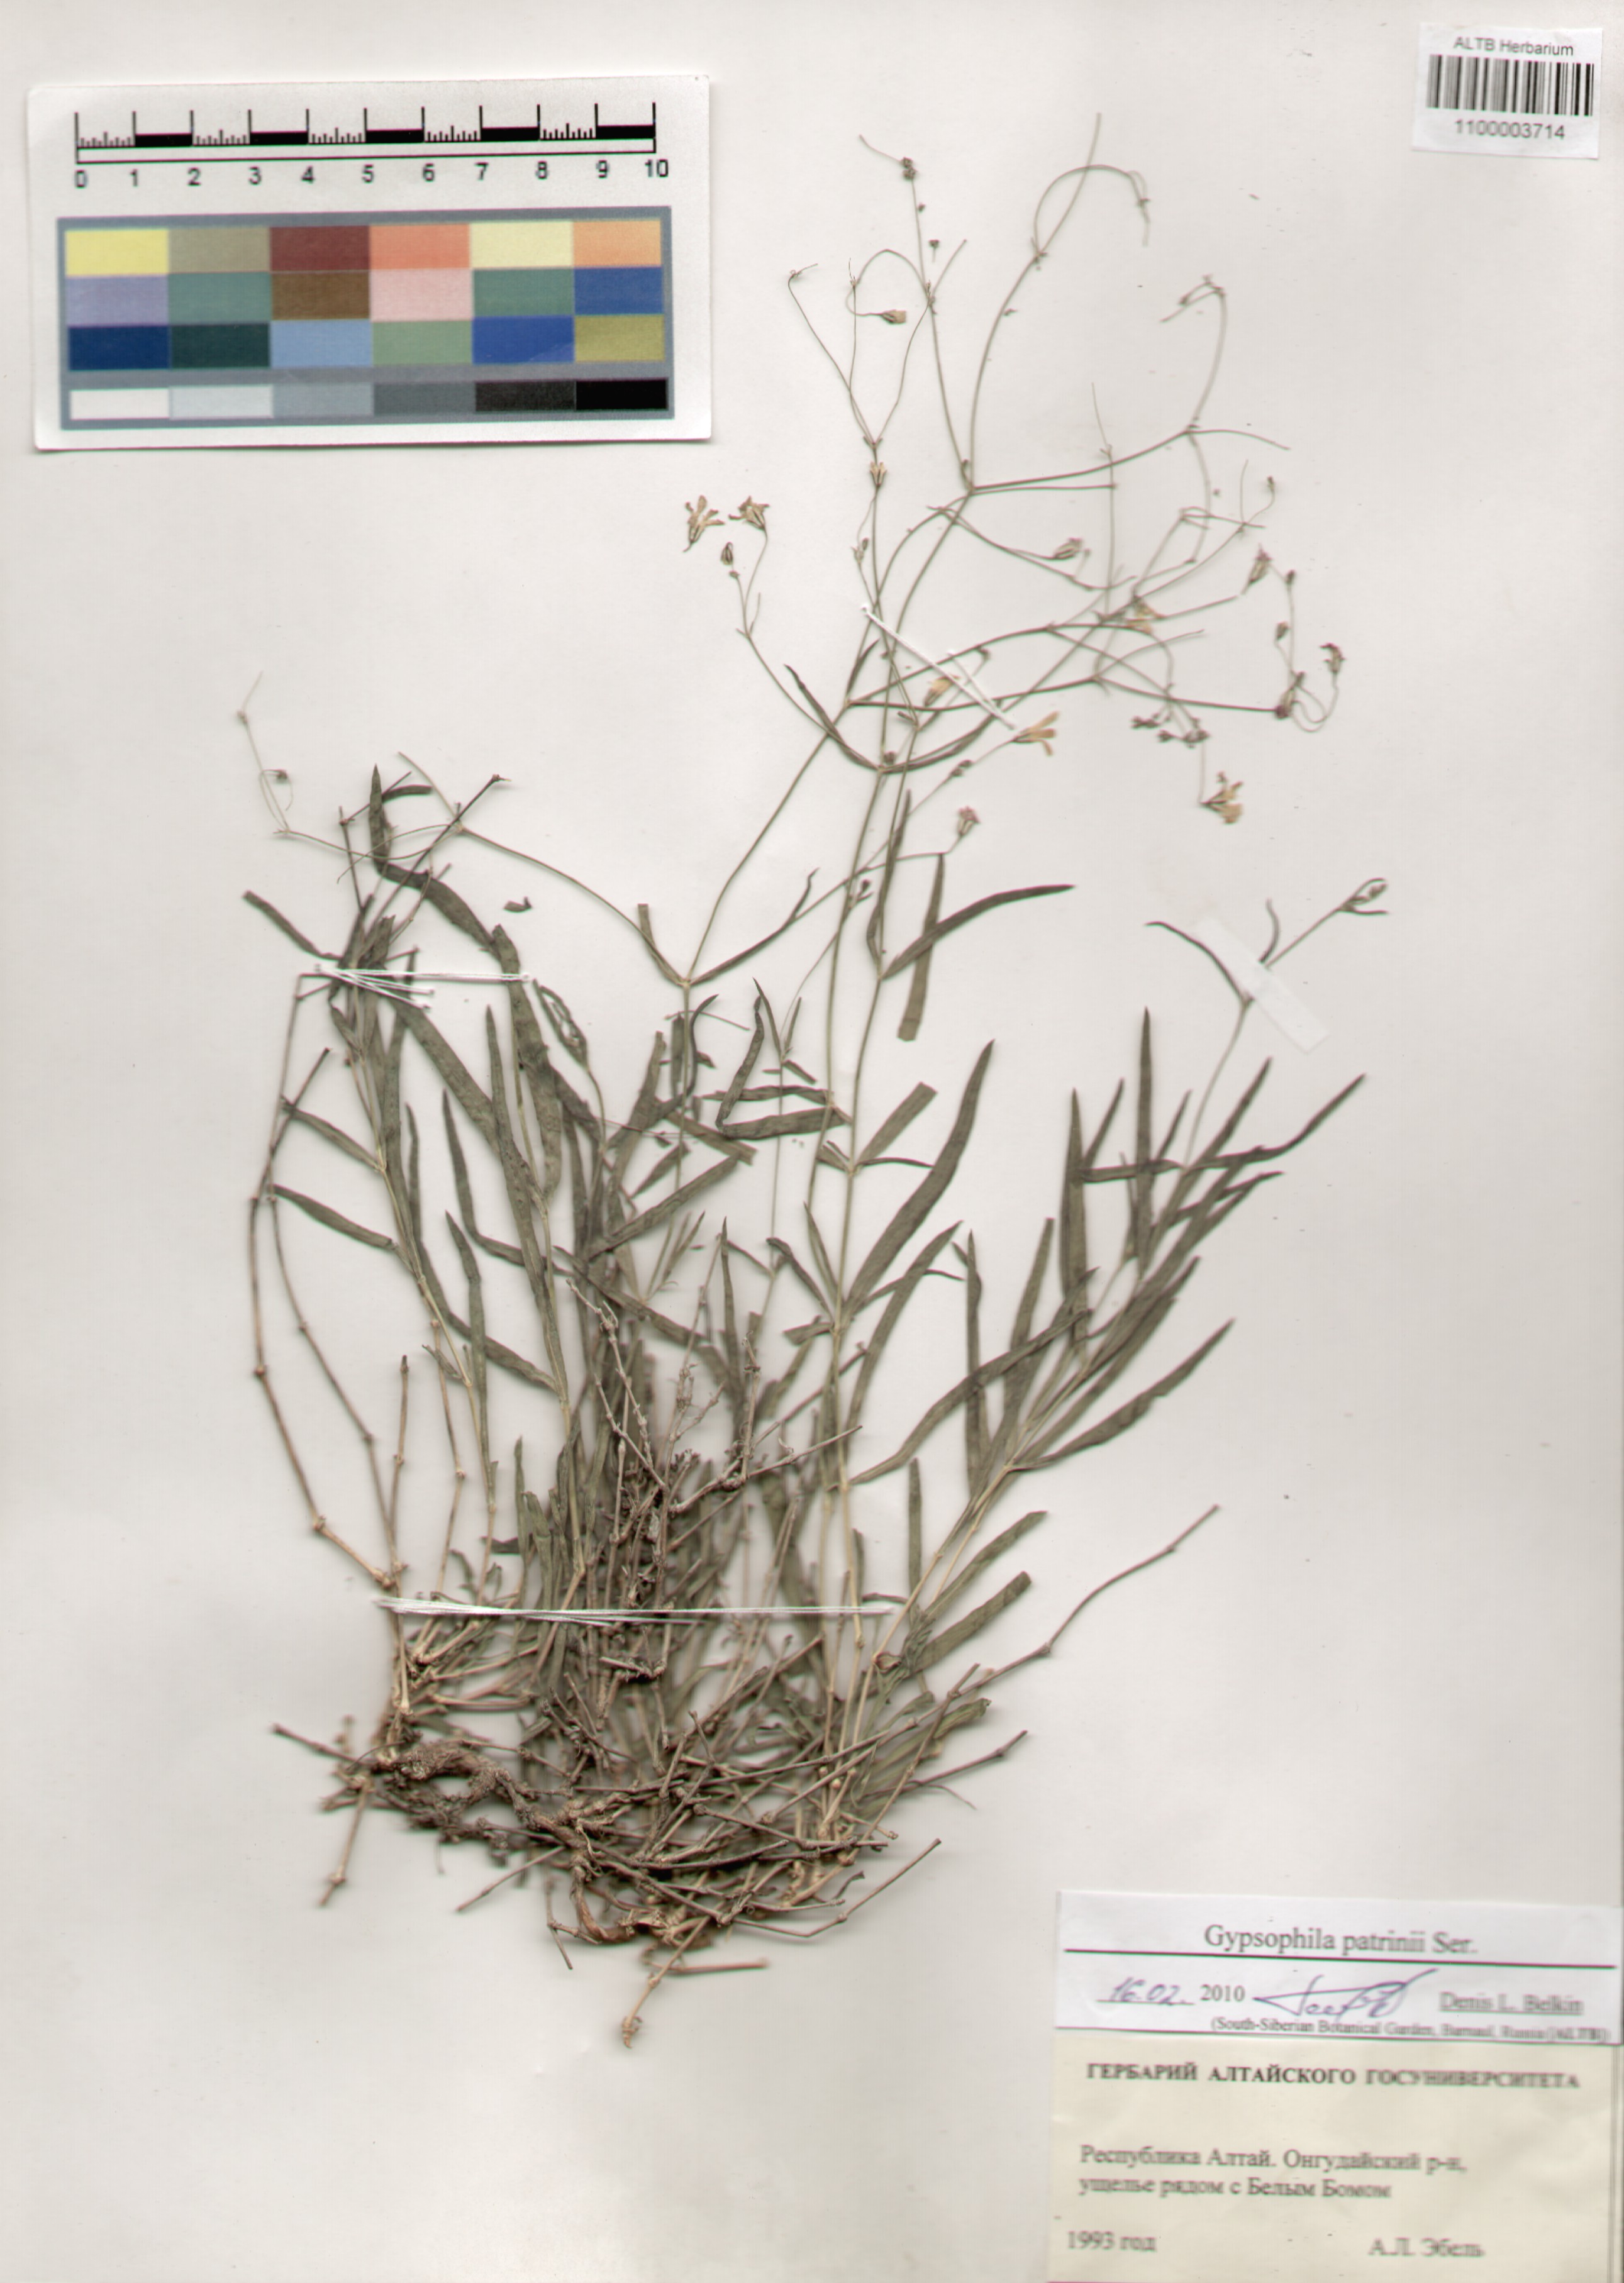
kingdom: Plantae
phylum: Tracheophyta
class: Magnoliopsida
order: Caryophyllales
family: Caryophyllaceae
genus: Gypsophila
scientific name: Gypsophila patrinii
